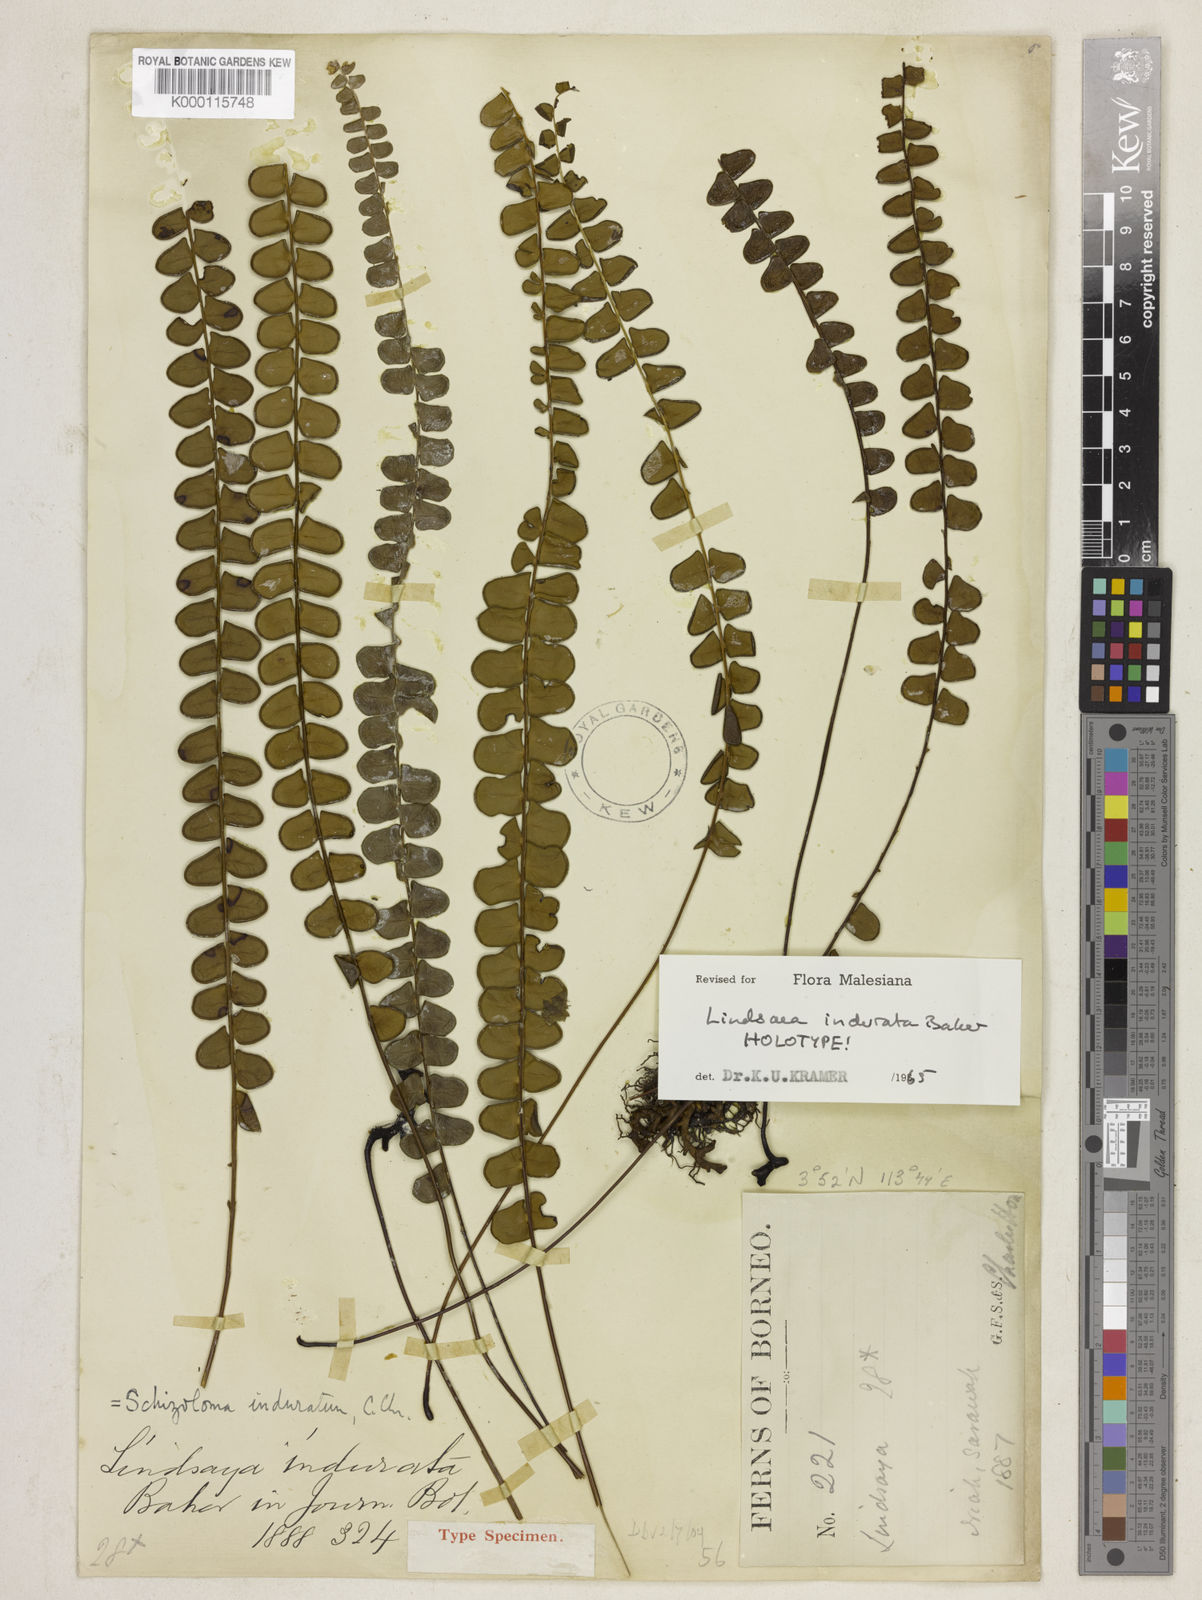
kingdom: Plantae
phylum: Tracheophyta
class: Polypodiopsida
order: Polypodiales
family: Lindsaeaceae
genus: Lindsaea
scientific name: Lindsaea gueriniana
